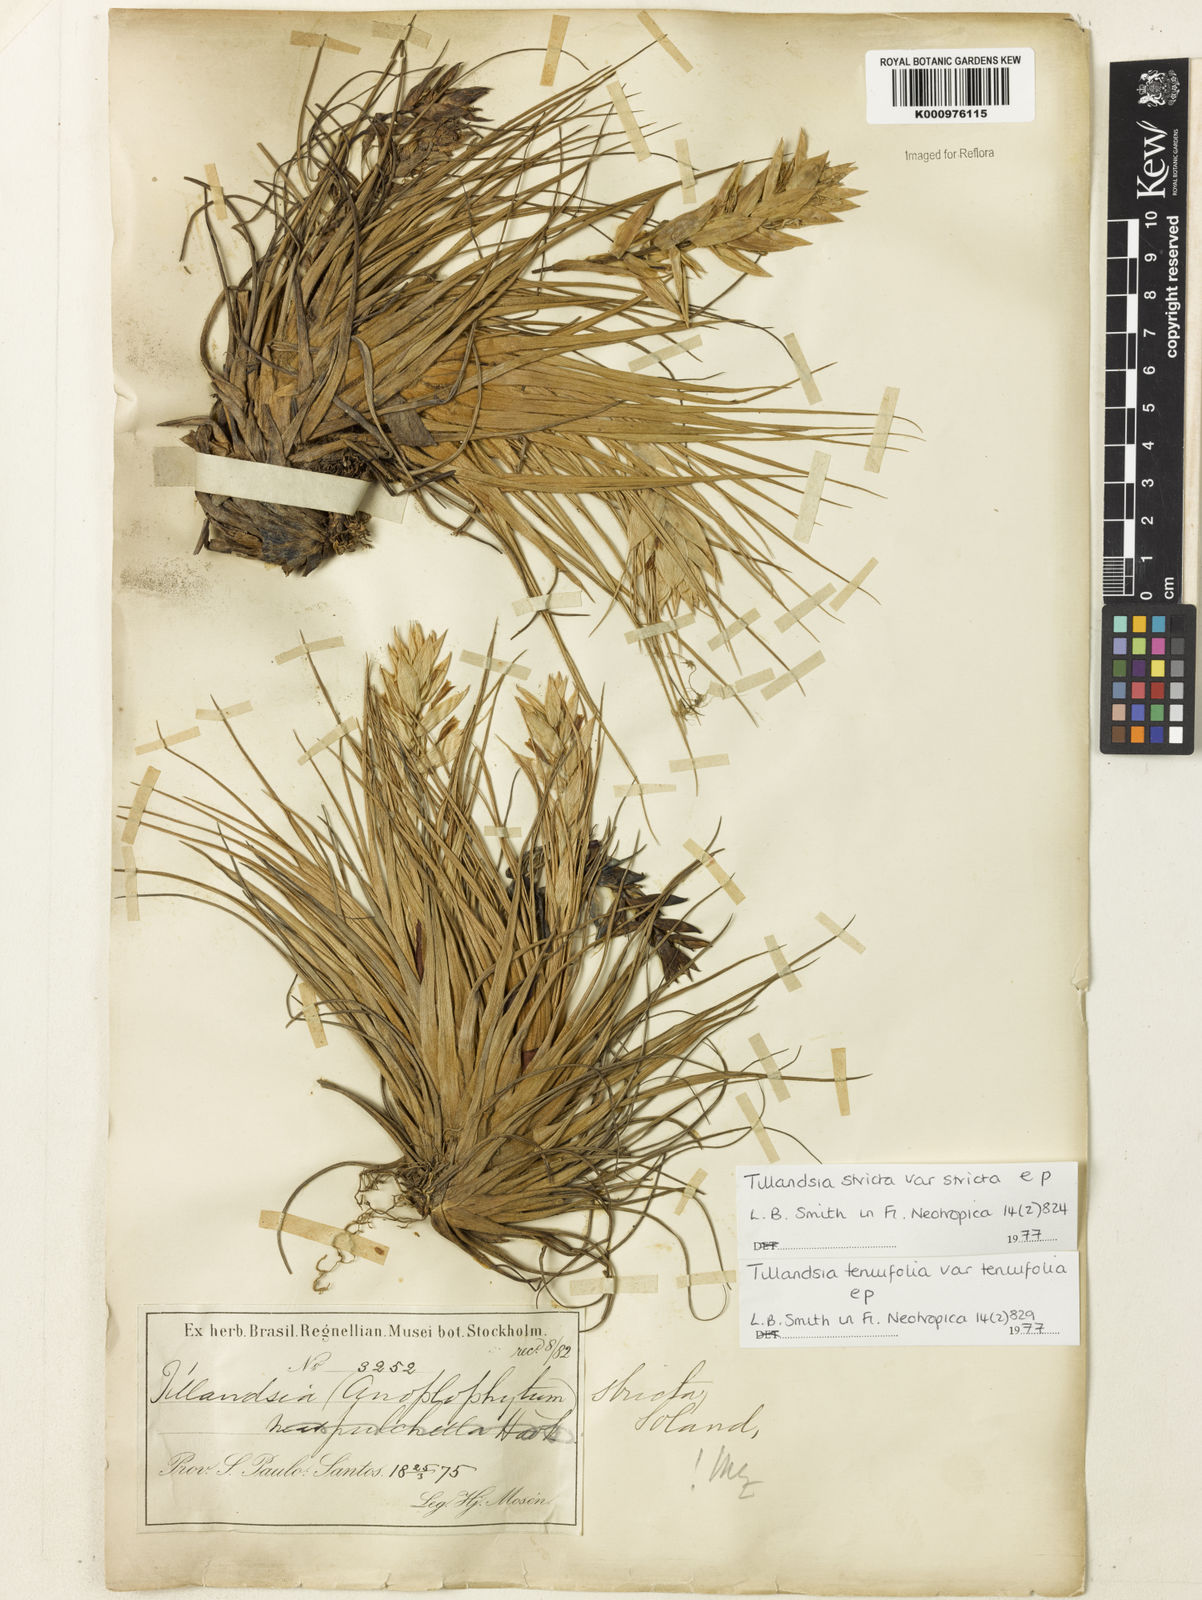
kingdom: Plantae
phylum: Tracheophyta
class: Liliopsida
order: Poales
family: Bromeliaceae
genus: Tillandsia
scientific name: Tillandsia stricta
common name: Airplant
